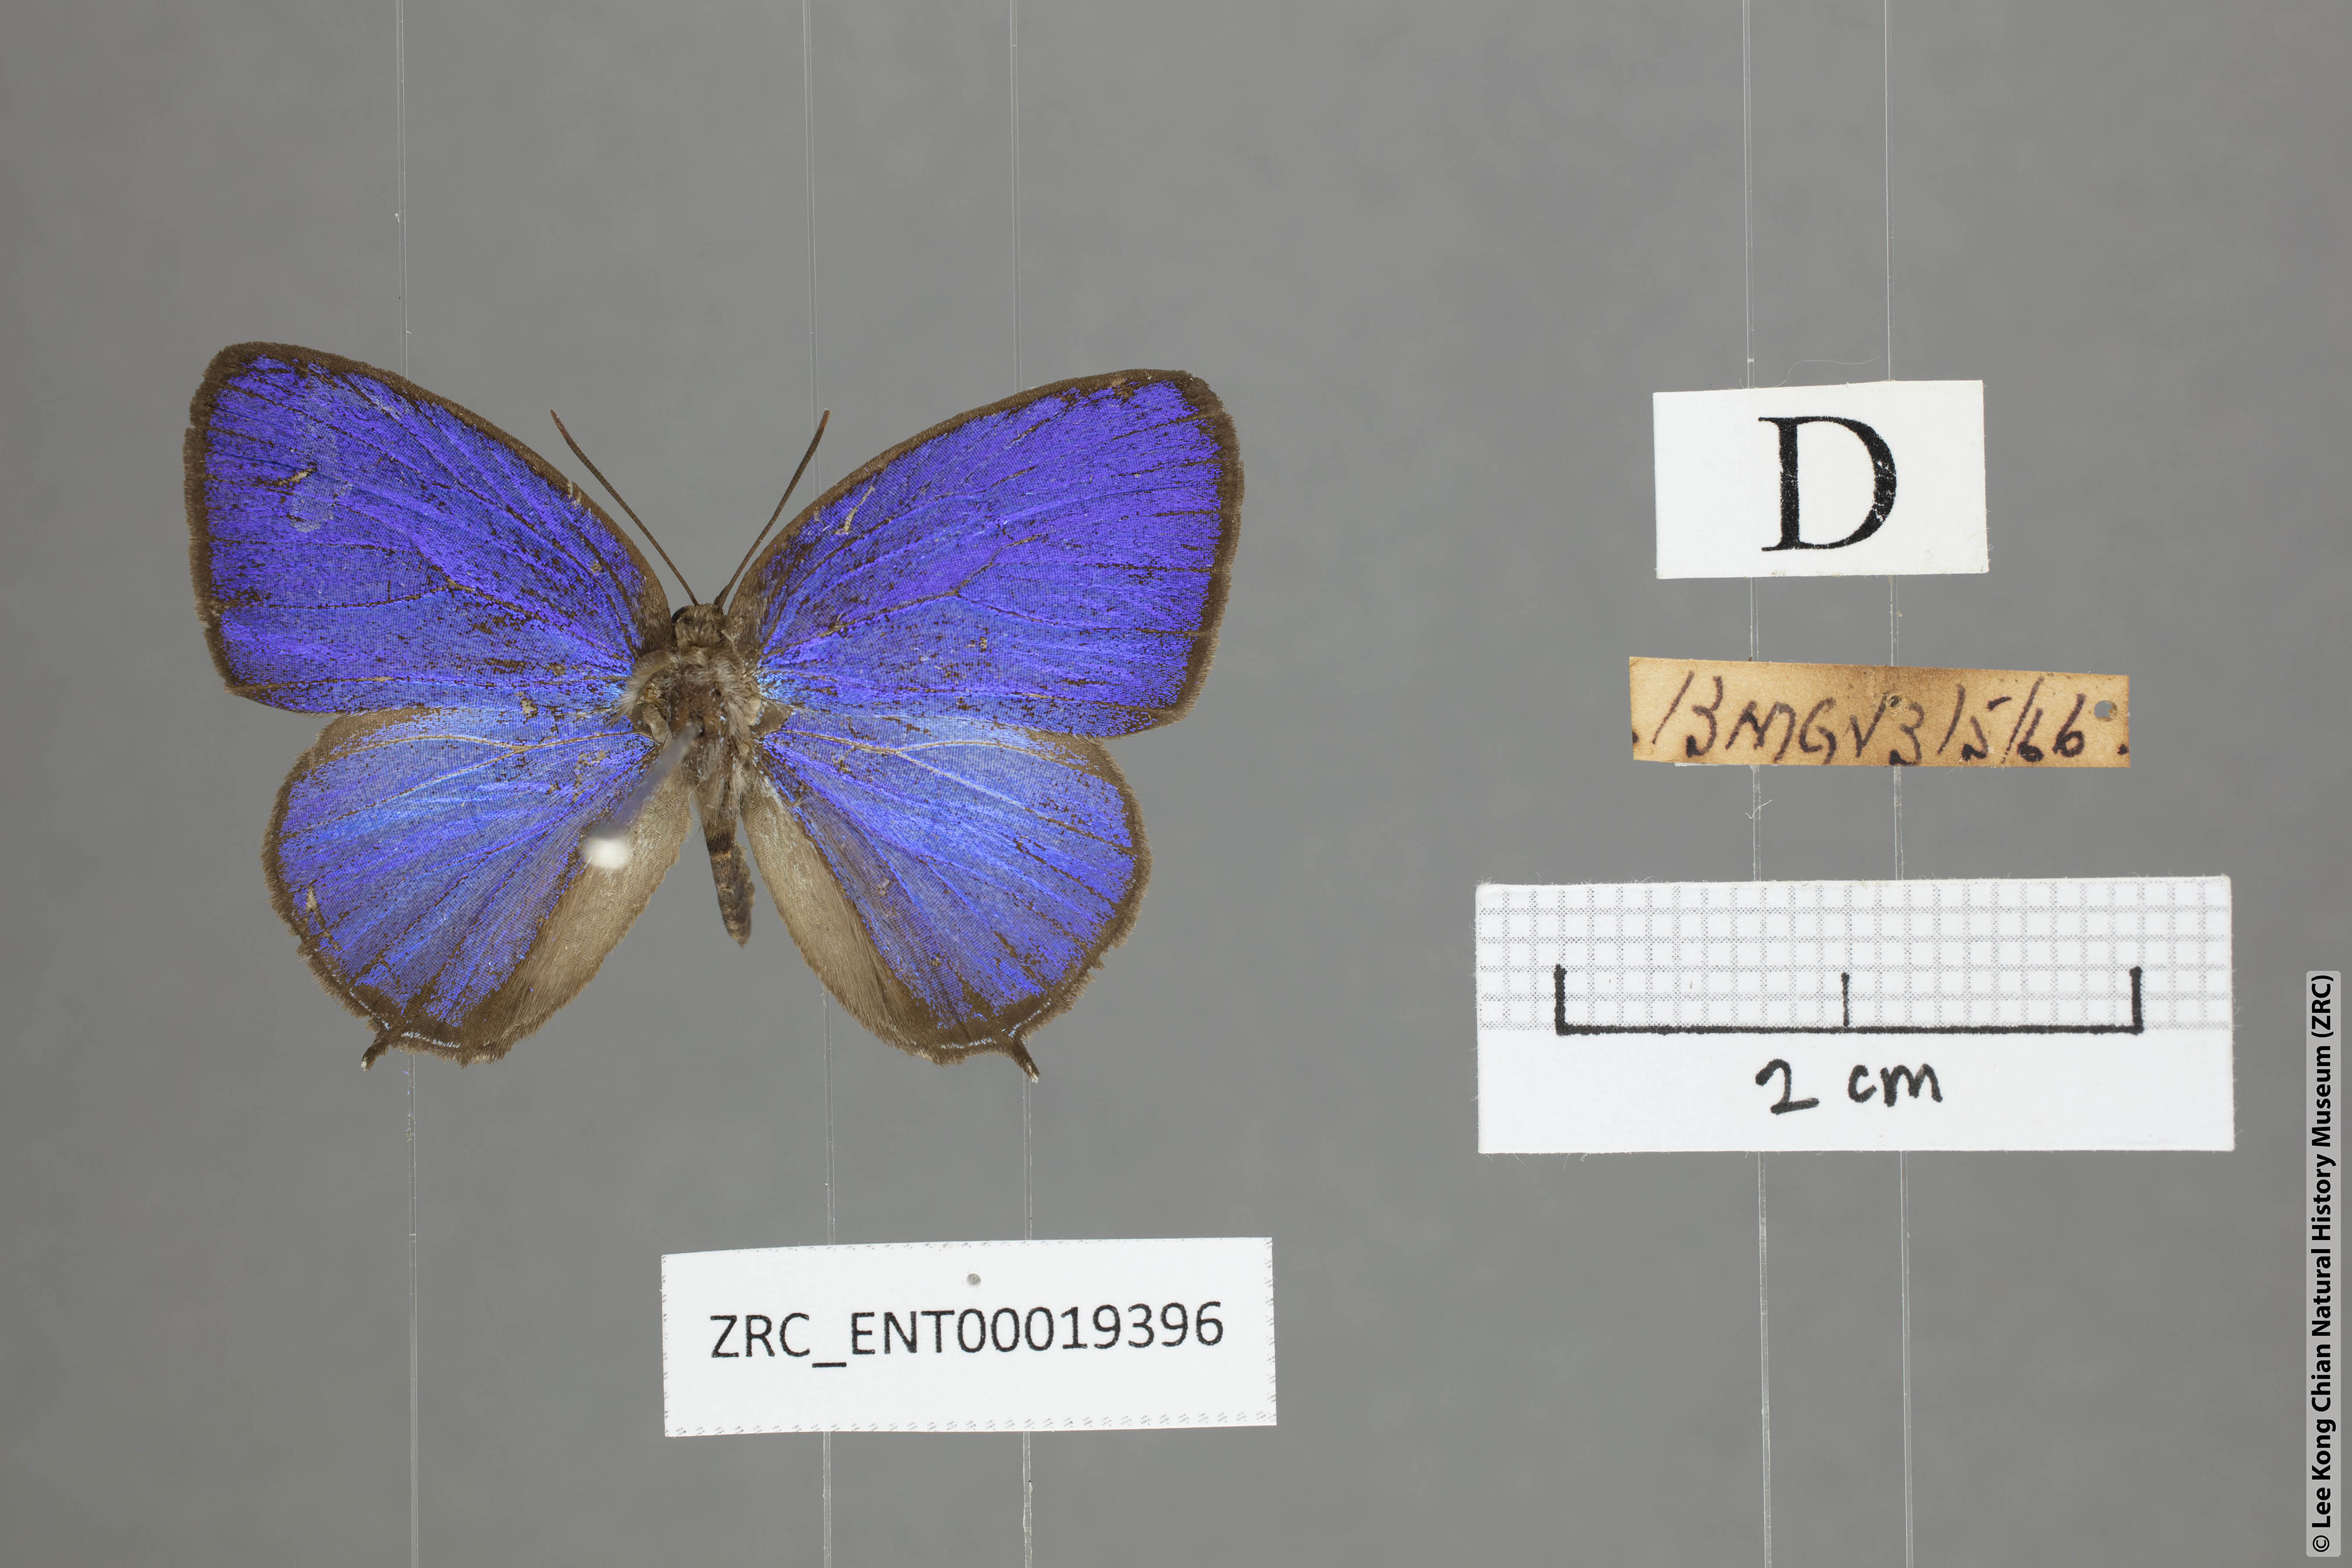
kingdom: Animalia
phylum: Arthropoda
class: Insecta
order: Lepidoptera
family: Lycaenidae
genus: Arhopala
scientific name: Arhopala democritus
